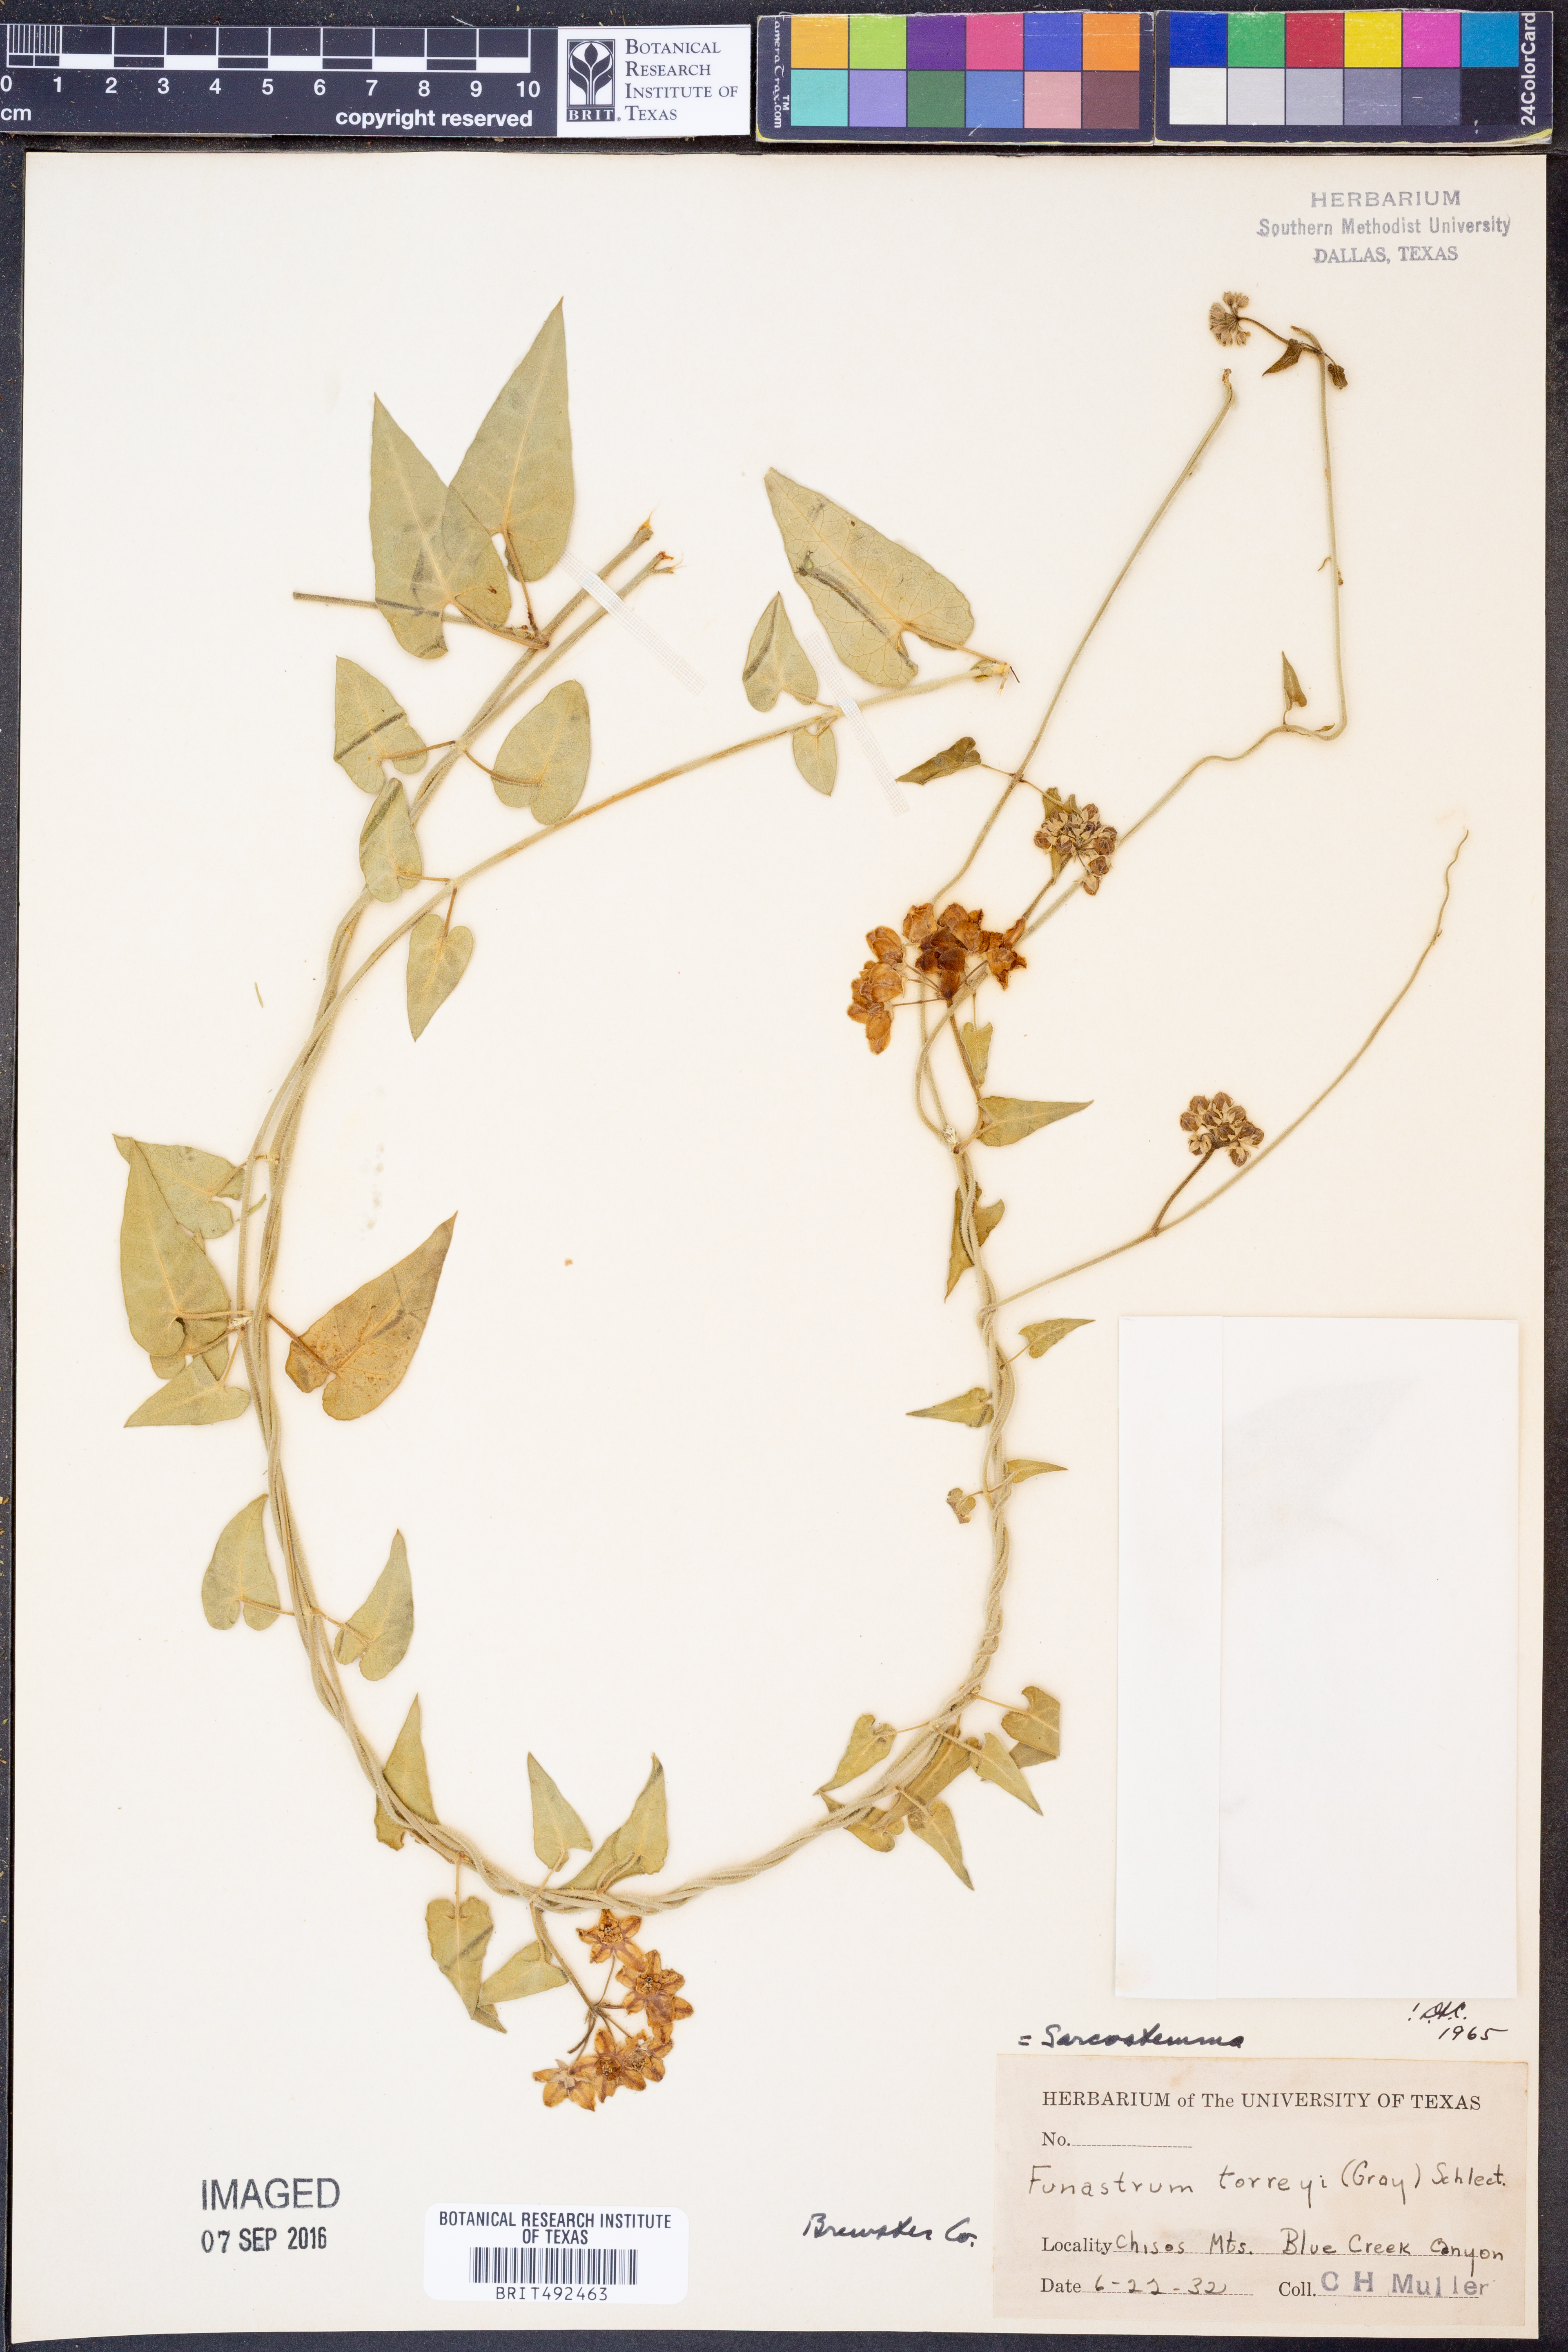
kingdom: Plantae
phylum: Tracheophyta
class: Magnoliopsida
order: Gentianales
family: Apocynaceae
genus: Funastrum
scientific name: Funastrum torreyi
